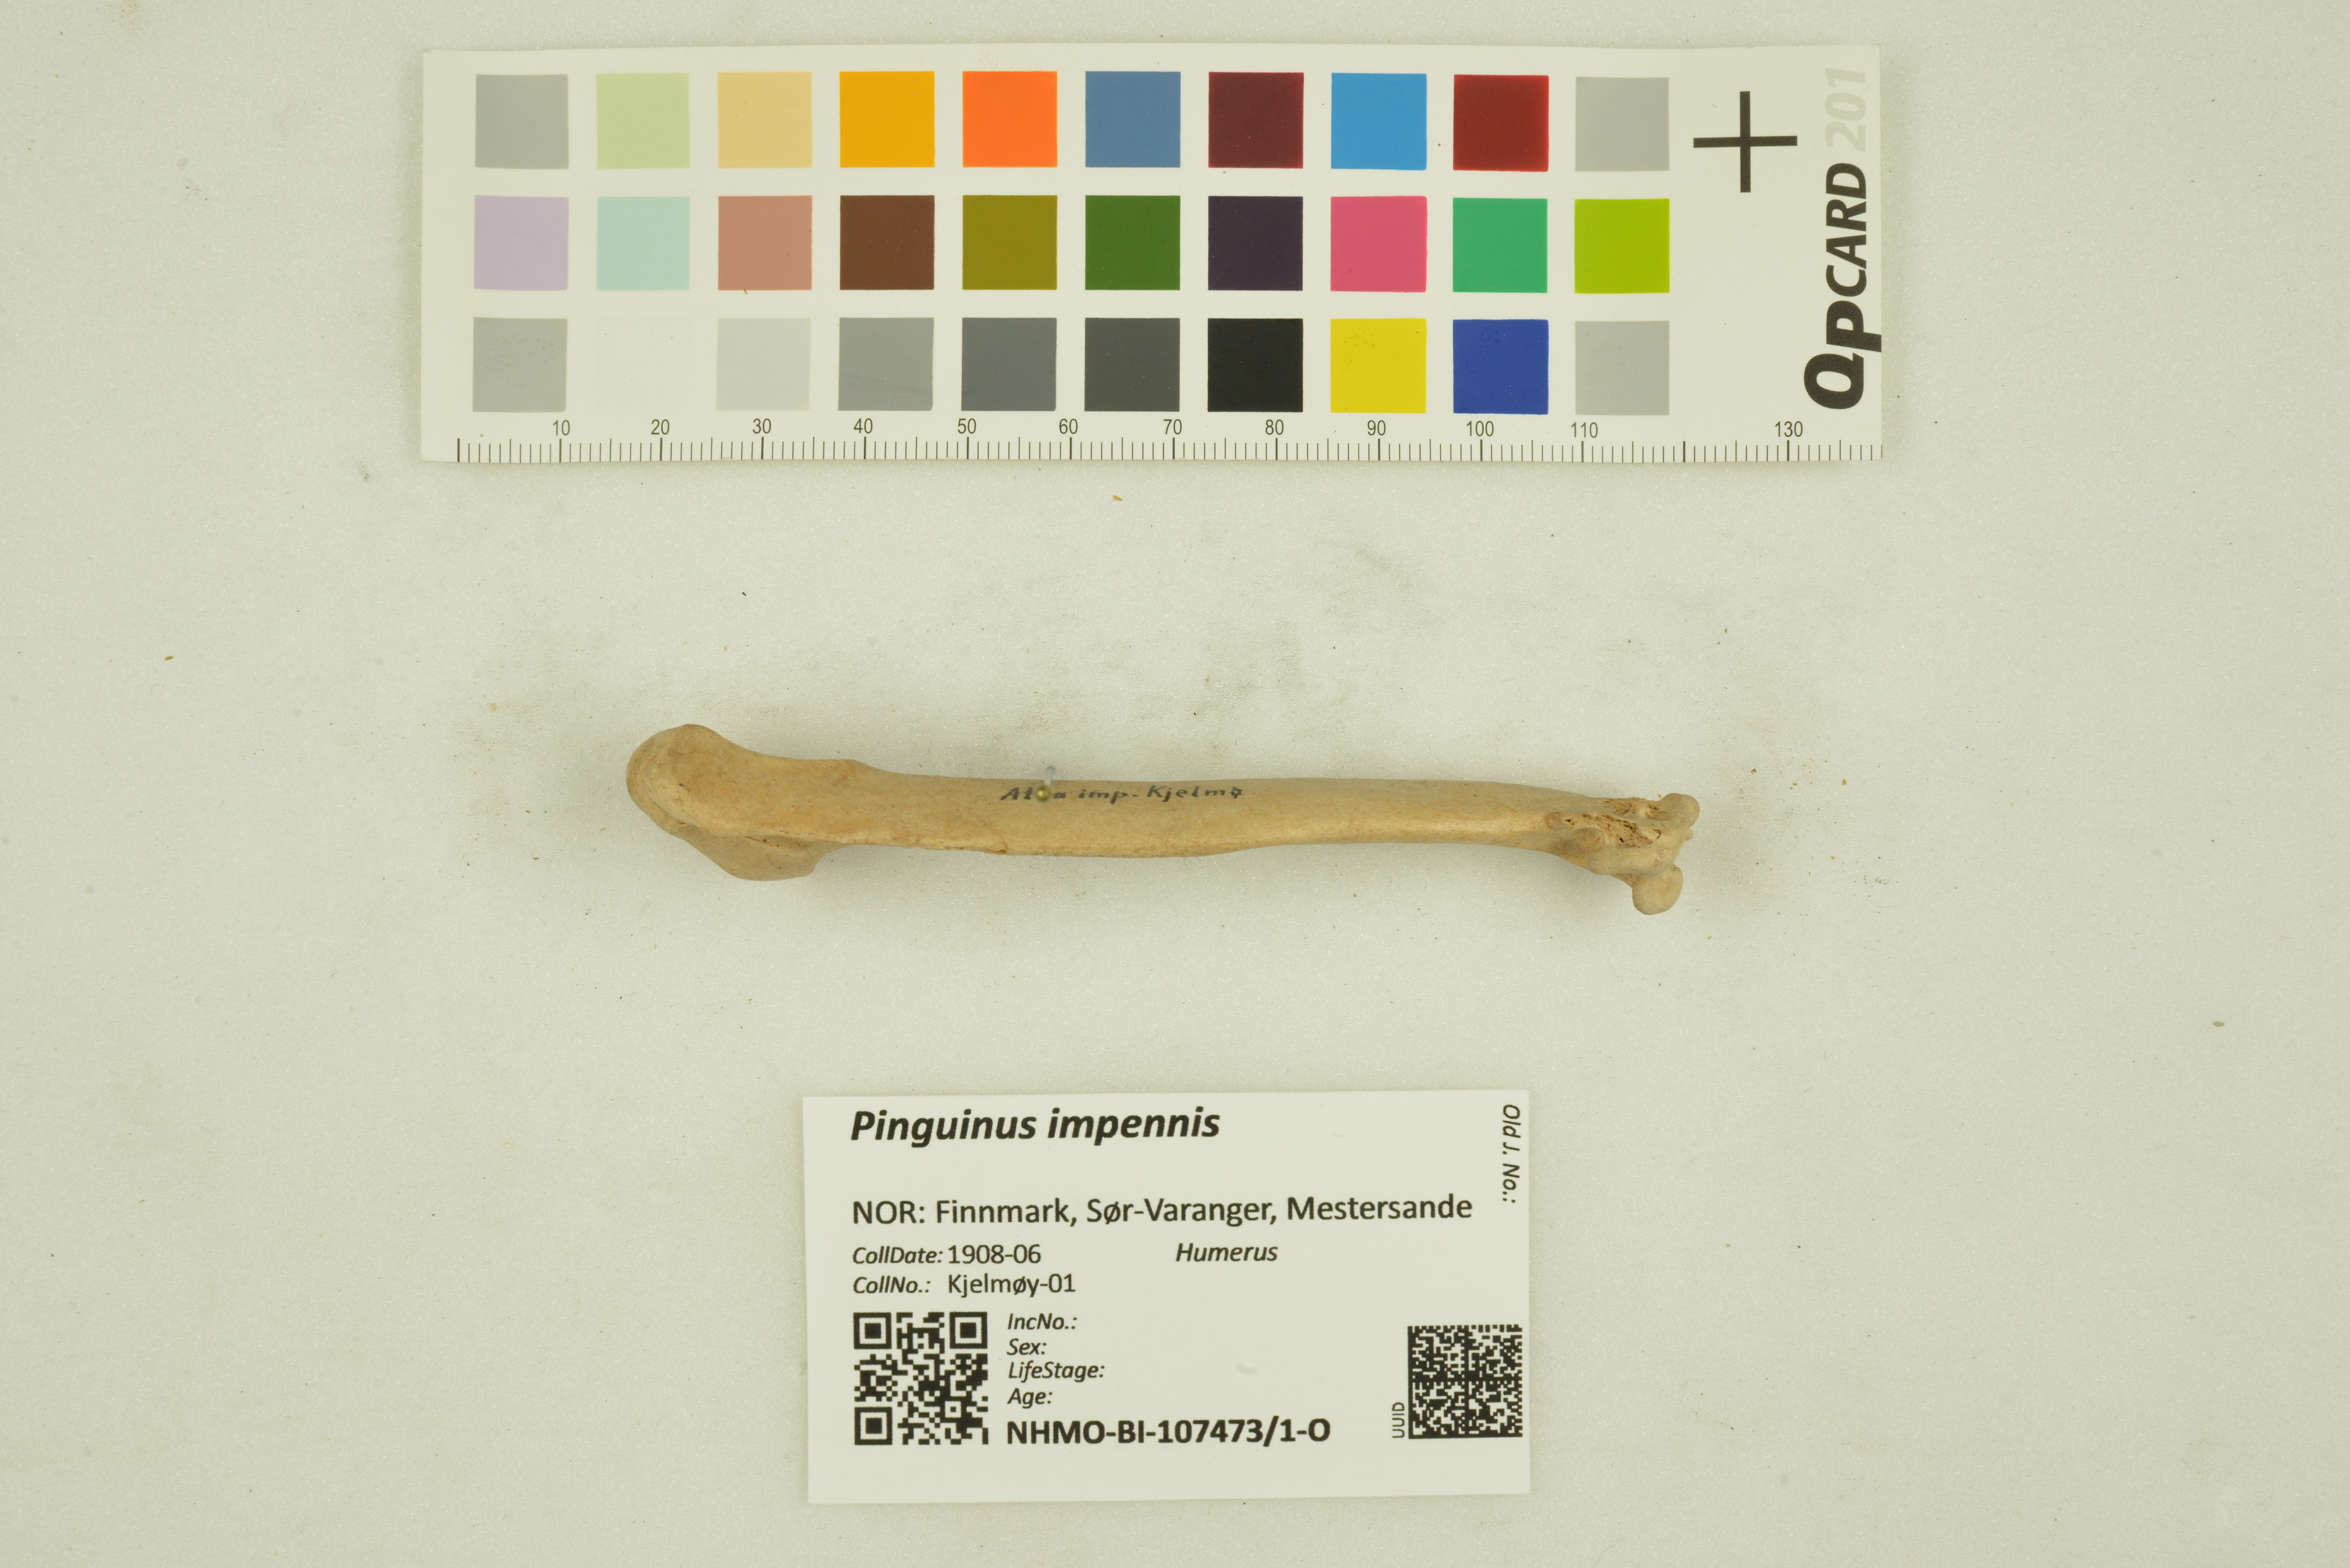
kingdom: Animalia
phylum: Chordata
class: Aves
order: Charadriiformes
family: Alcidae
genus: Pinguinus
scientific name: Pinguinus impennis
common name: Great auk
